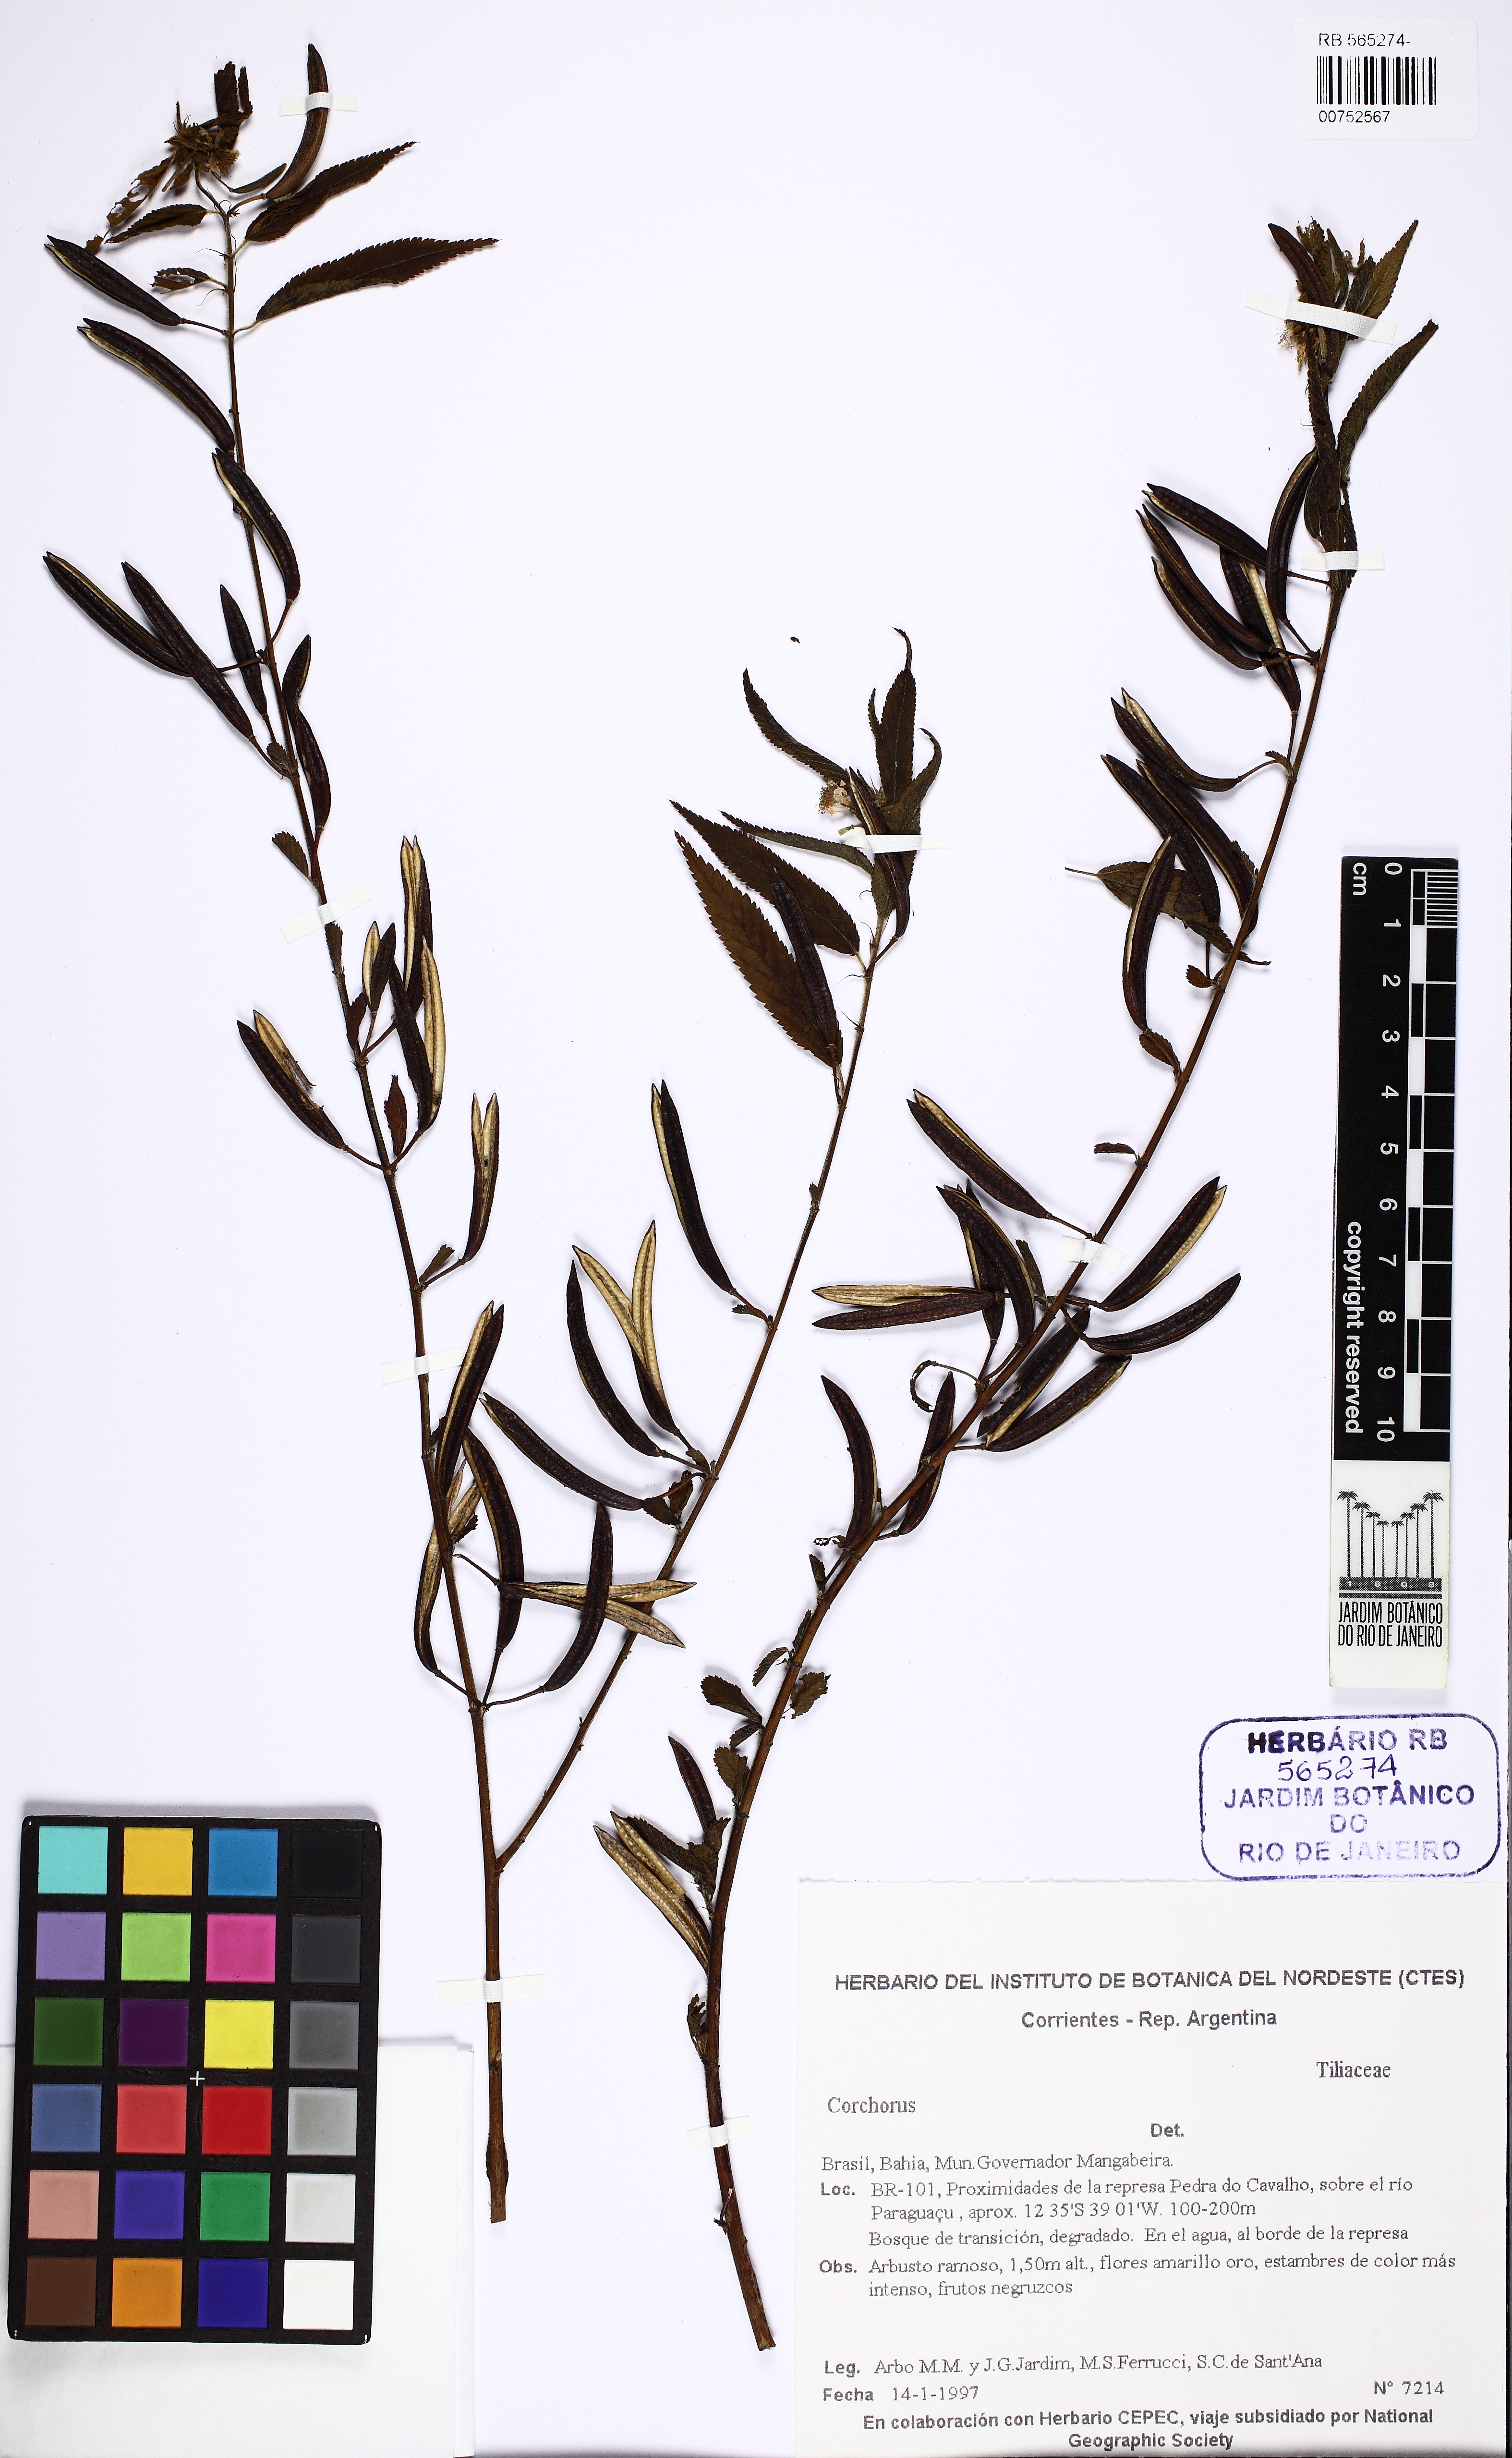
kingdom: Plantae
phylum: Tracheophyta
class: Magnoliopsida
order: Malvales
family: Malvaceae
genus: Corchorus
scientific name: Corchorus
